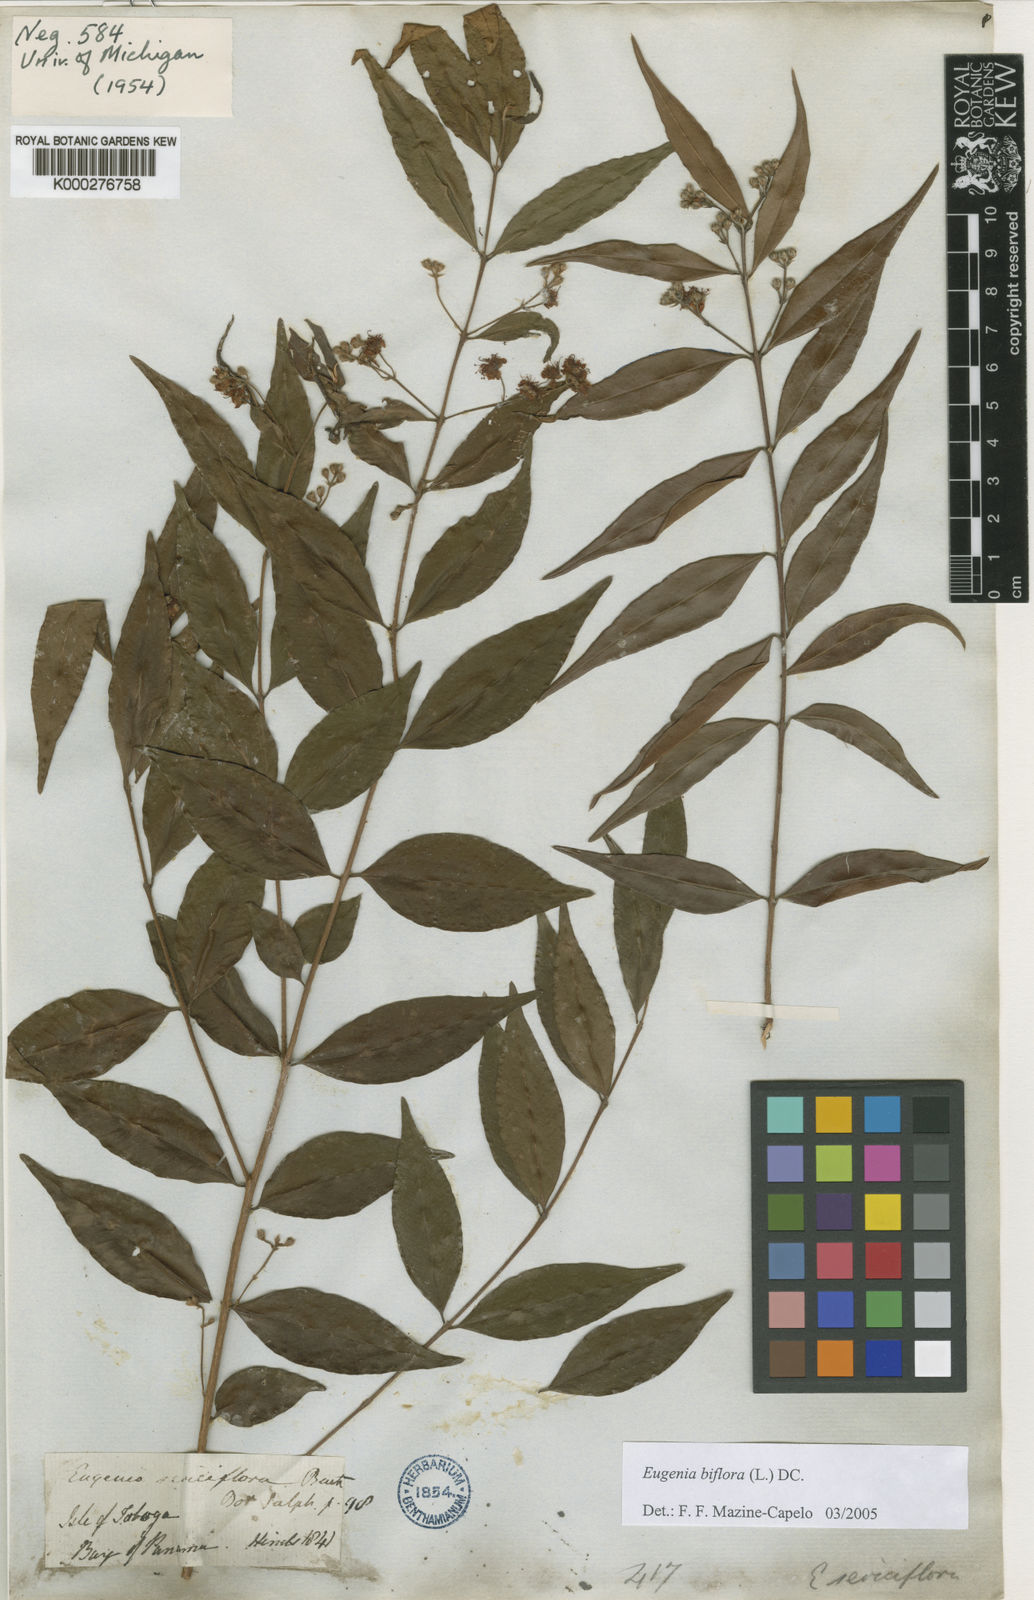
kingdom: Plantae
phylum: Tracheophyta
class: Magnoliopsida
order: Myrtales
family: Myrtaceae
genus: Eugenia
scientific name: Eugenia biflora
